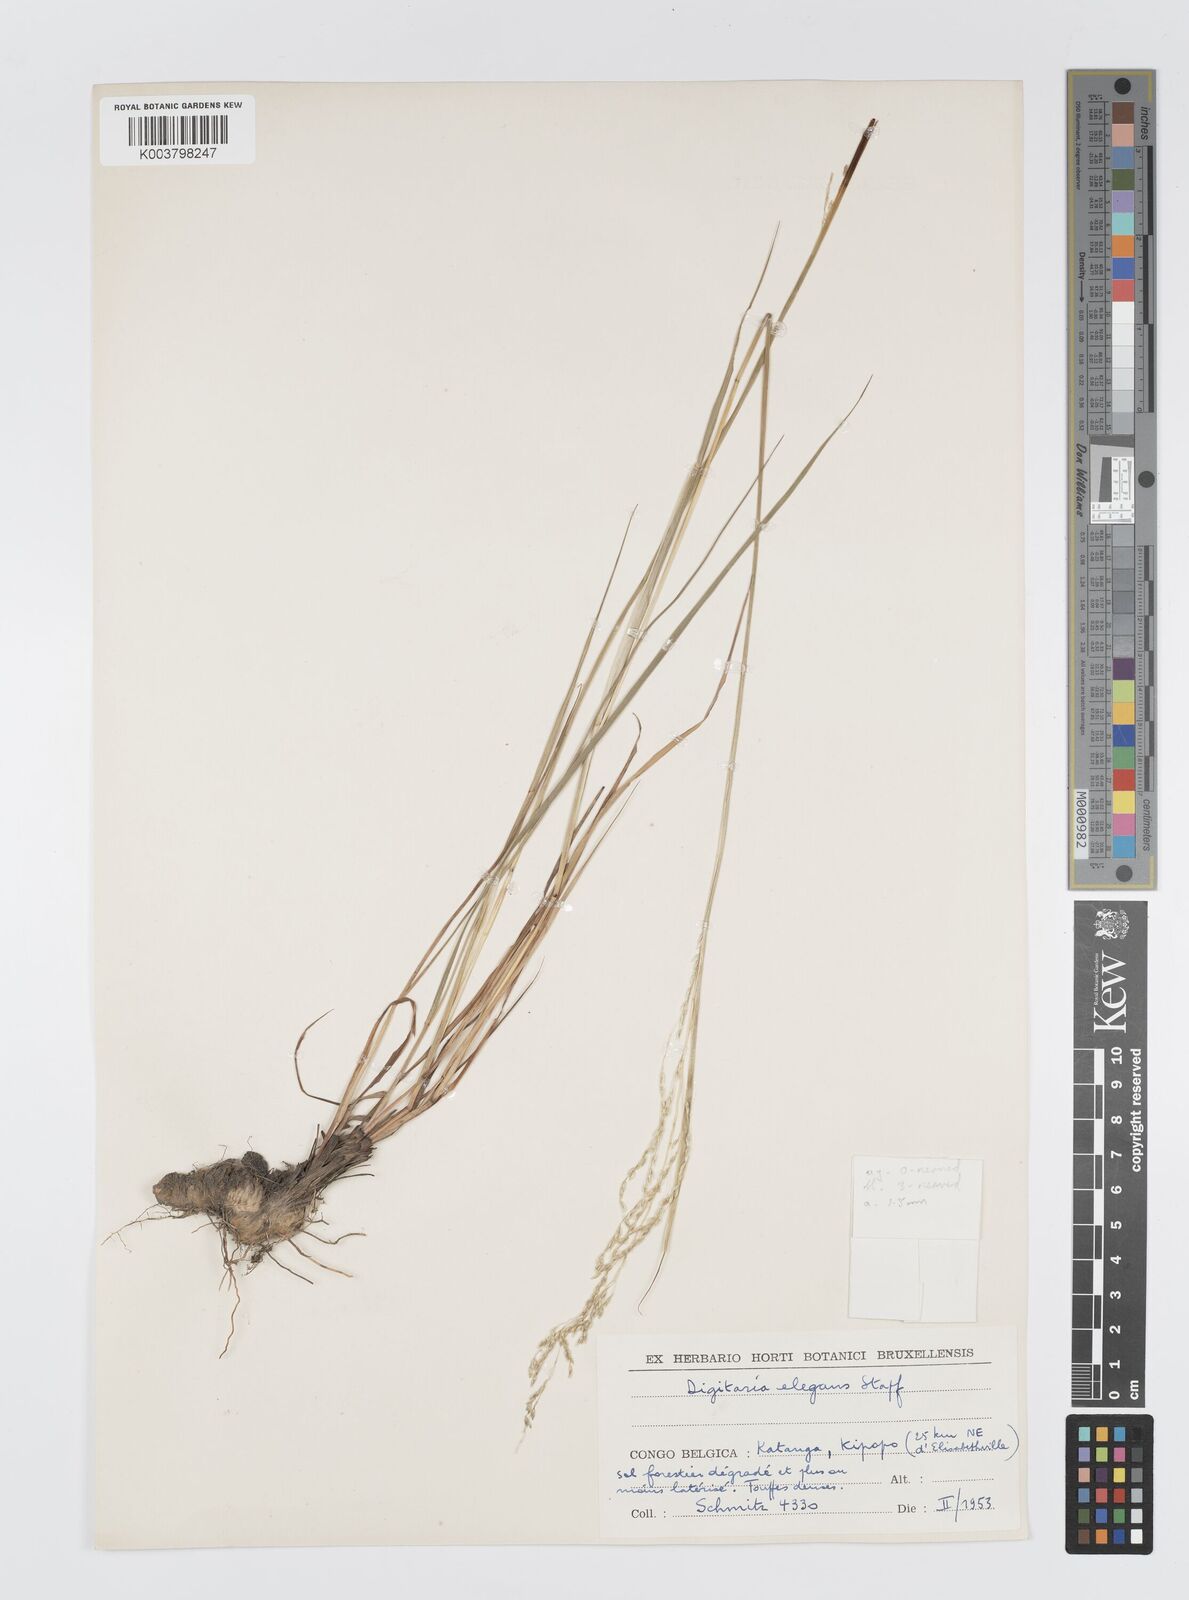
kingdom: Plantae
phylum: Tracheophyta
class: Liliopsida
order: Poales
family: Poaceae
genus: Digitaria
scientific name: Digitaria flaccida
